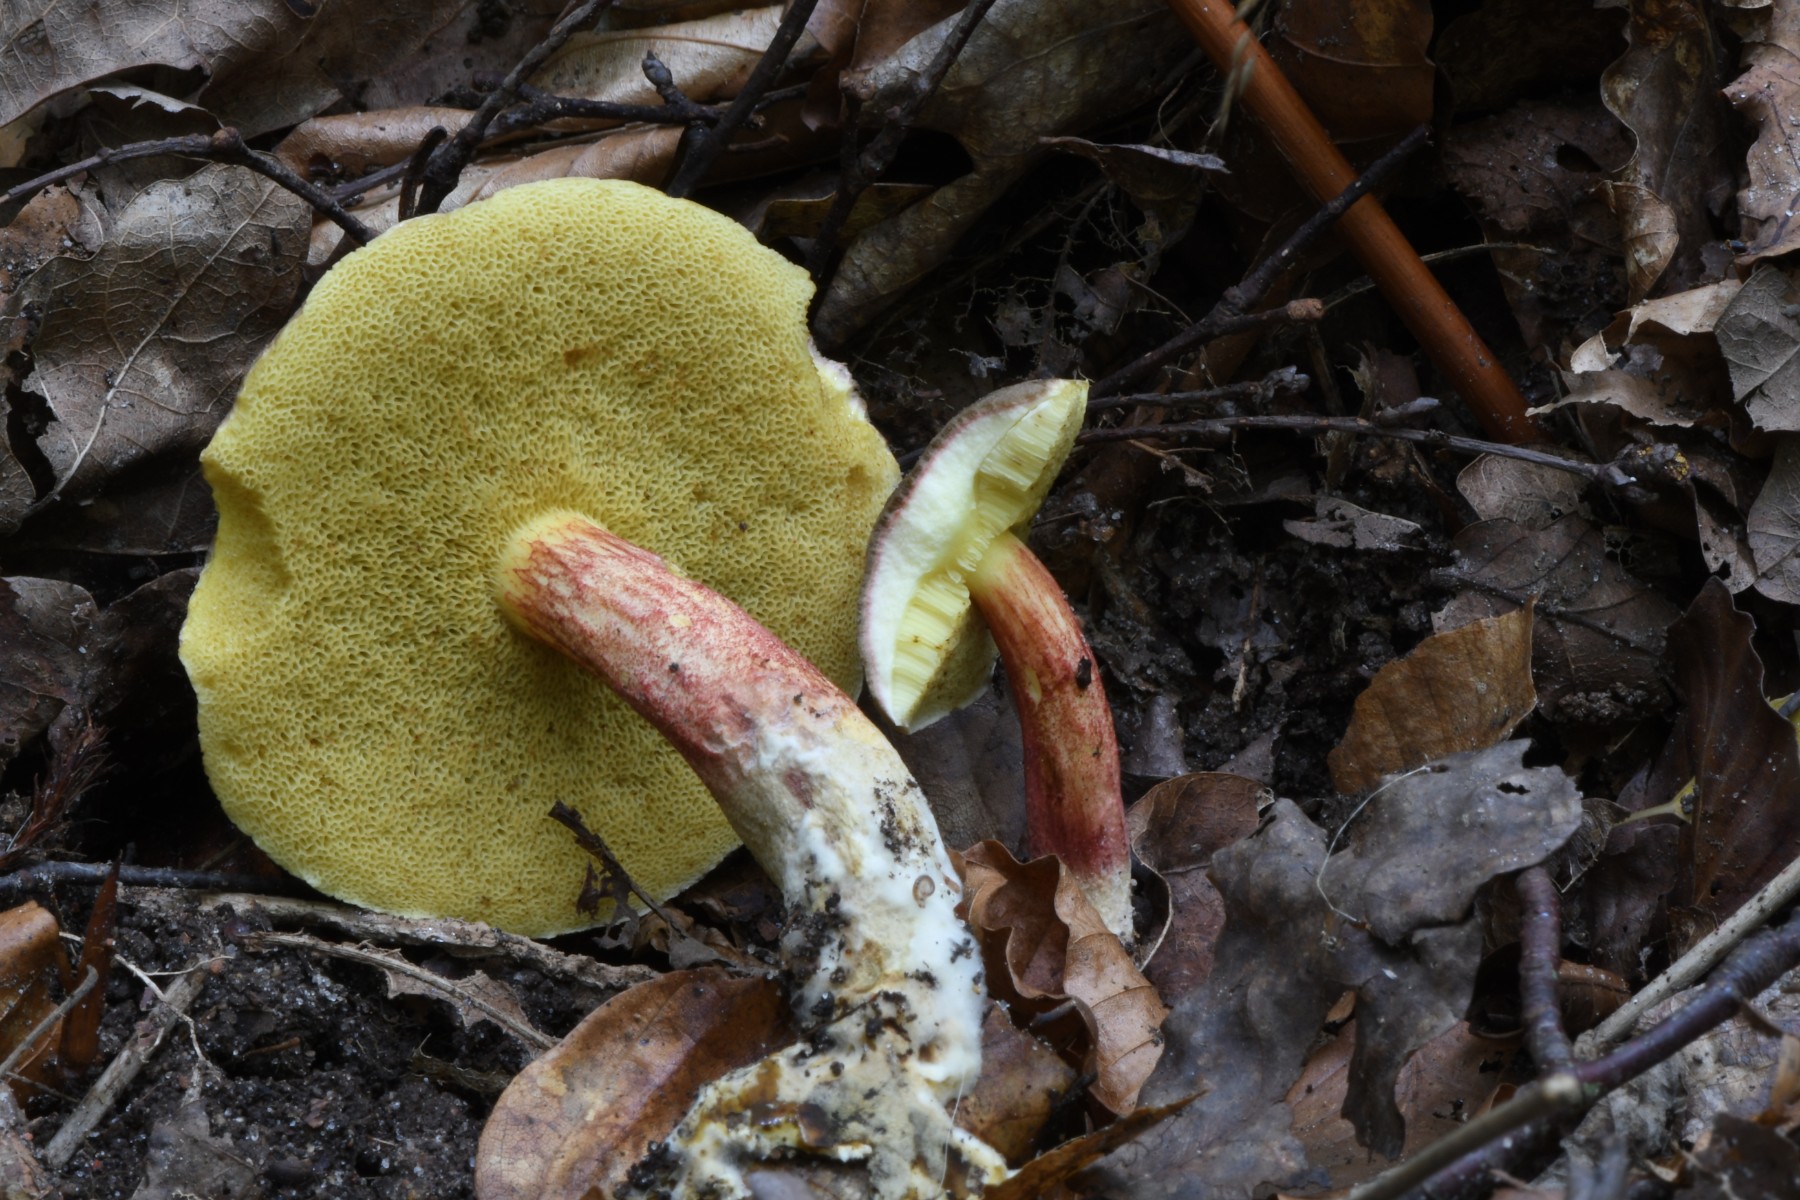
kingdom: Fungi
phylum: Basidiomycota
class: Agaricomycetes
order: Boletales
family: Boletaceae
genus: Xerocomellus
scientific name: Xerocomellus
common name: dværgrørhat
